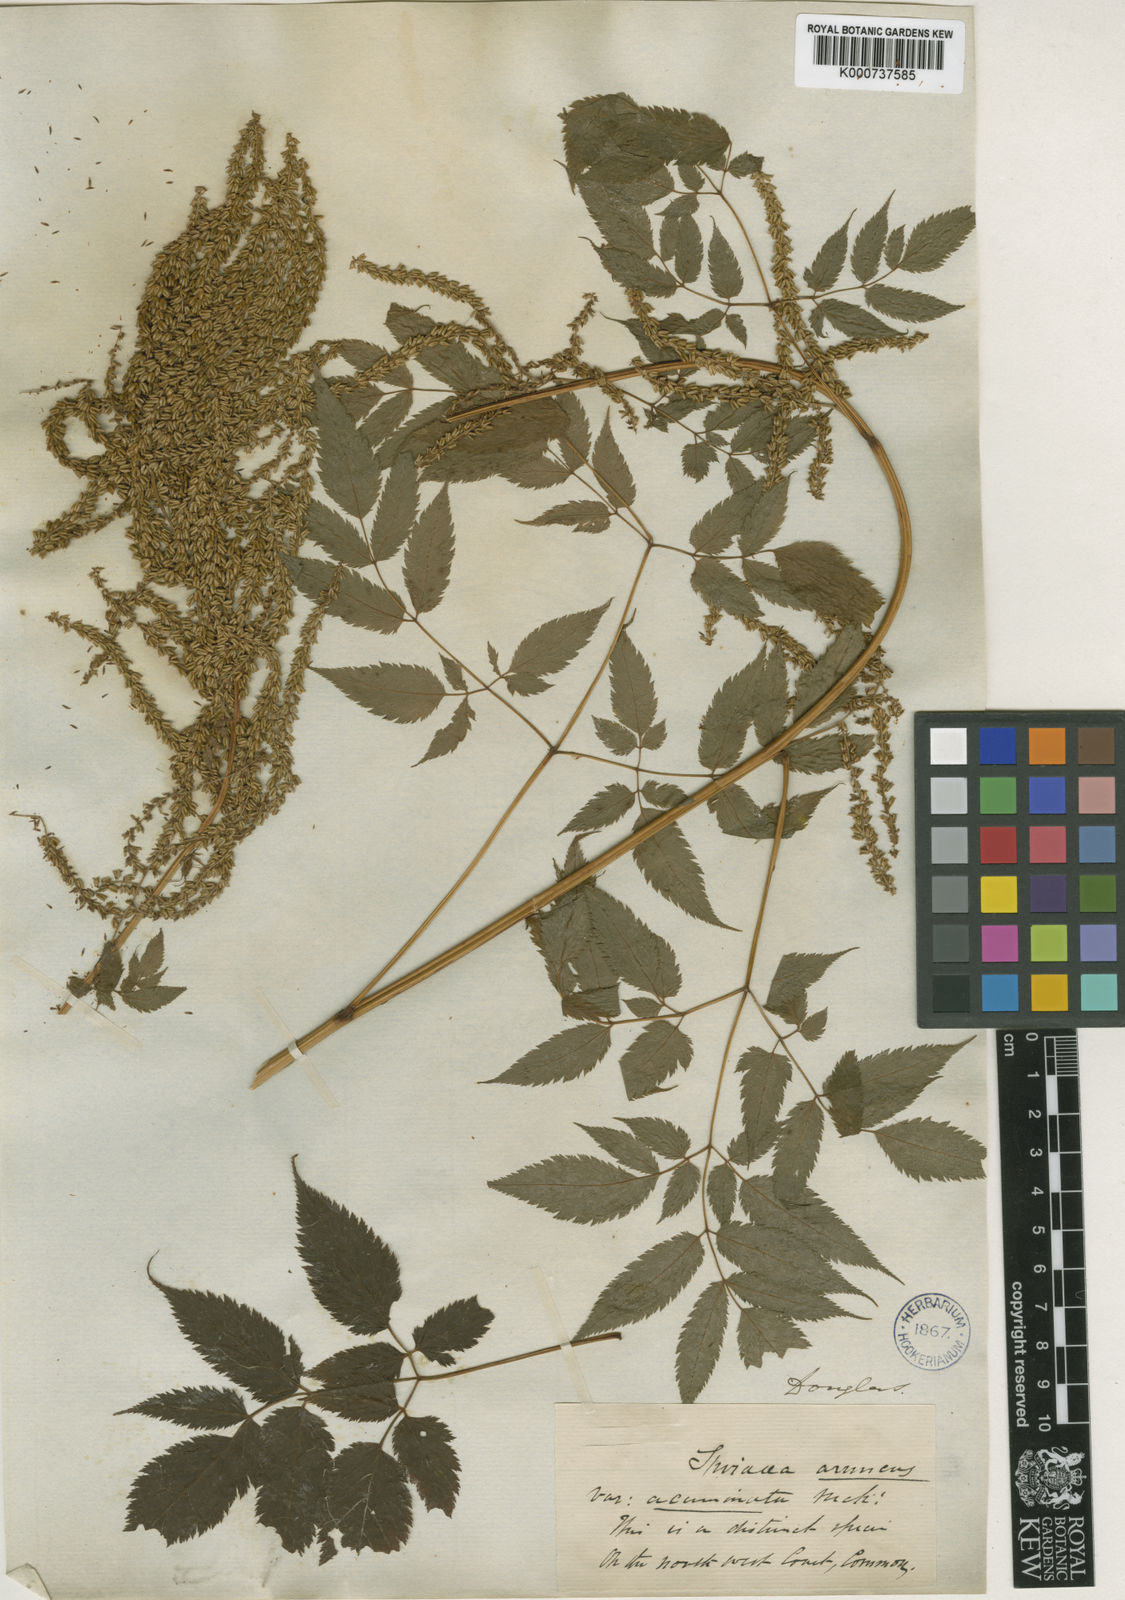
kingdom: Plantae
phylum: Tracheophyta
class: Magnoliopsida
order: Rosales
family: Rosaceae
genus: Aruncus
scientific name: Aruncus dioicus
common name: Buck's-beard
